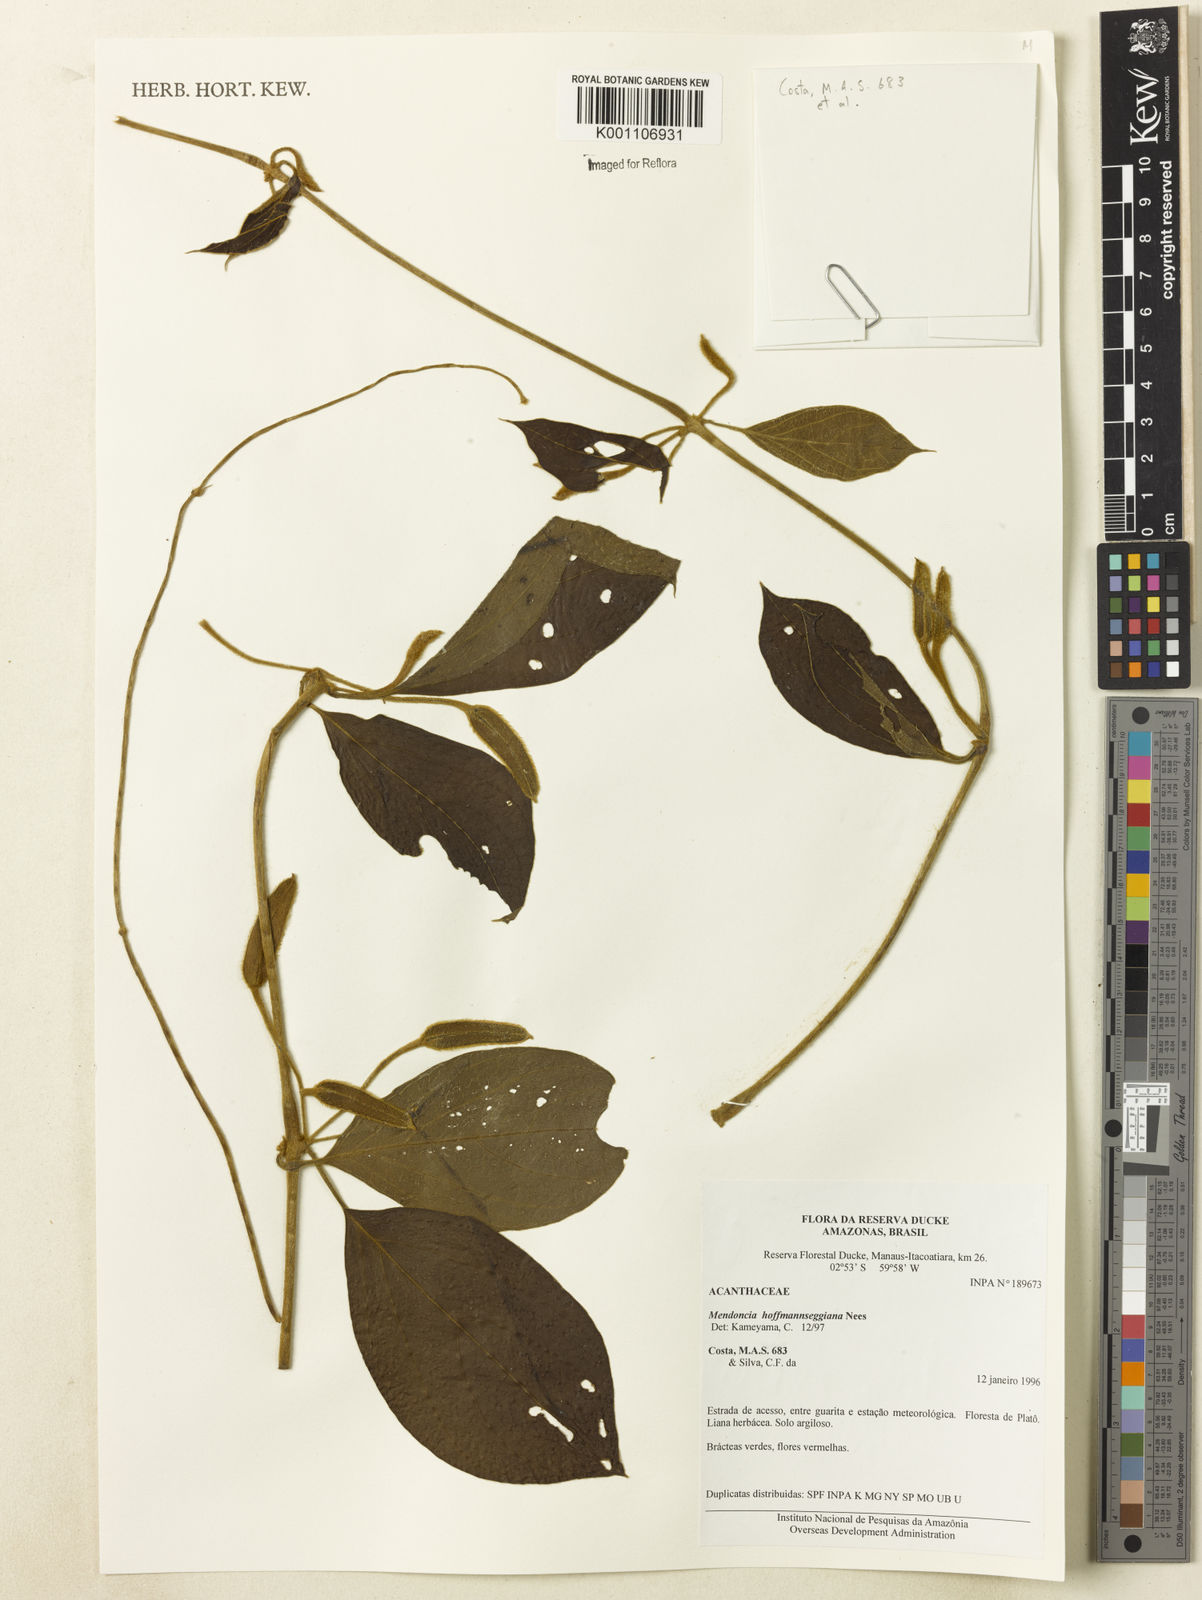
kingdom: Plantae
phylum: Tracheophyta
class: Magnoliopsida
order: Lamiales
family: Acanthaceae
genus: Mendoncia
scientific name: Mendoncia hoffmannseggiana
